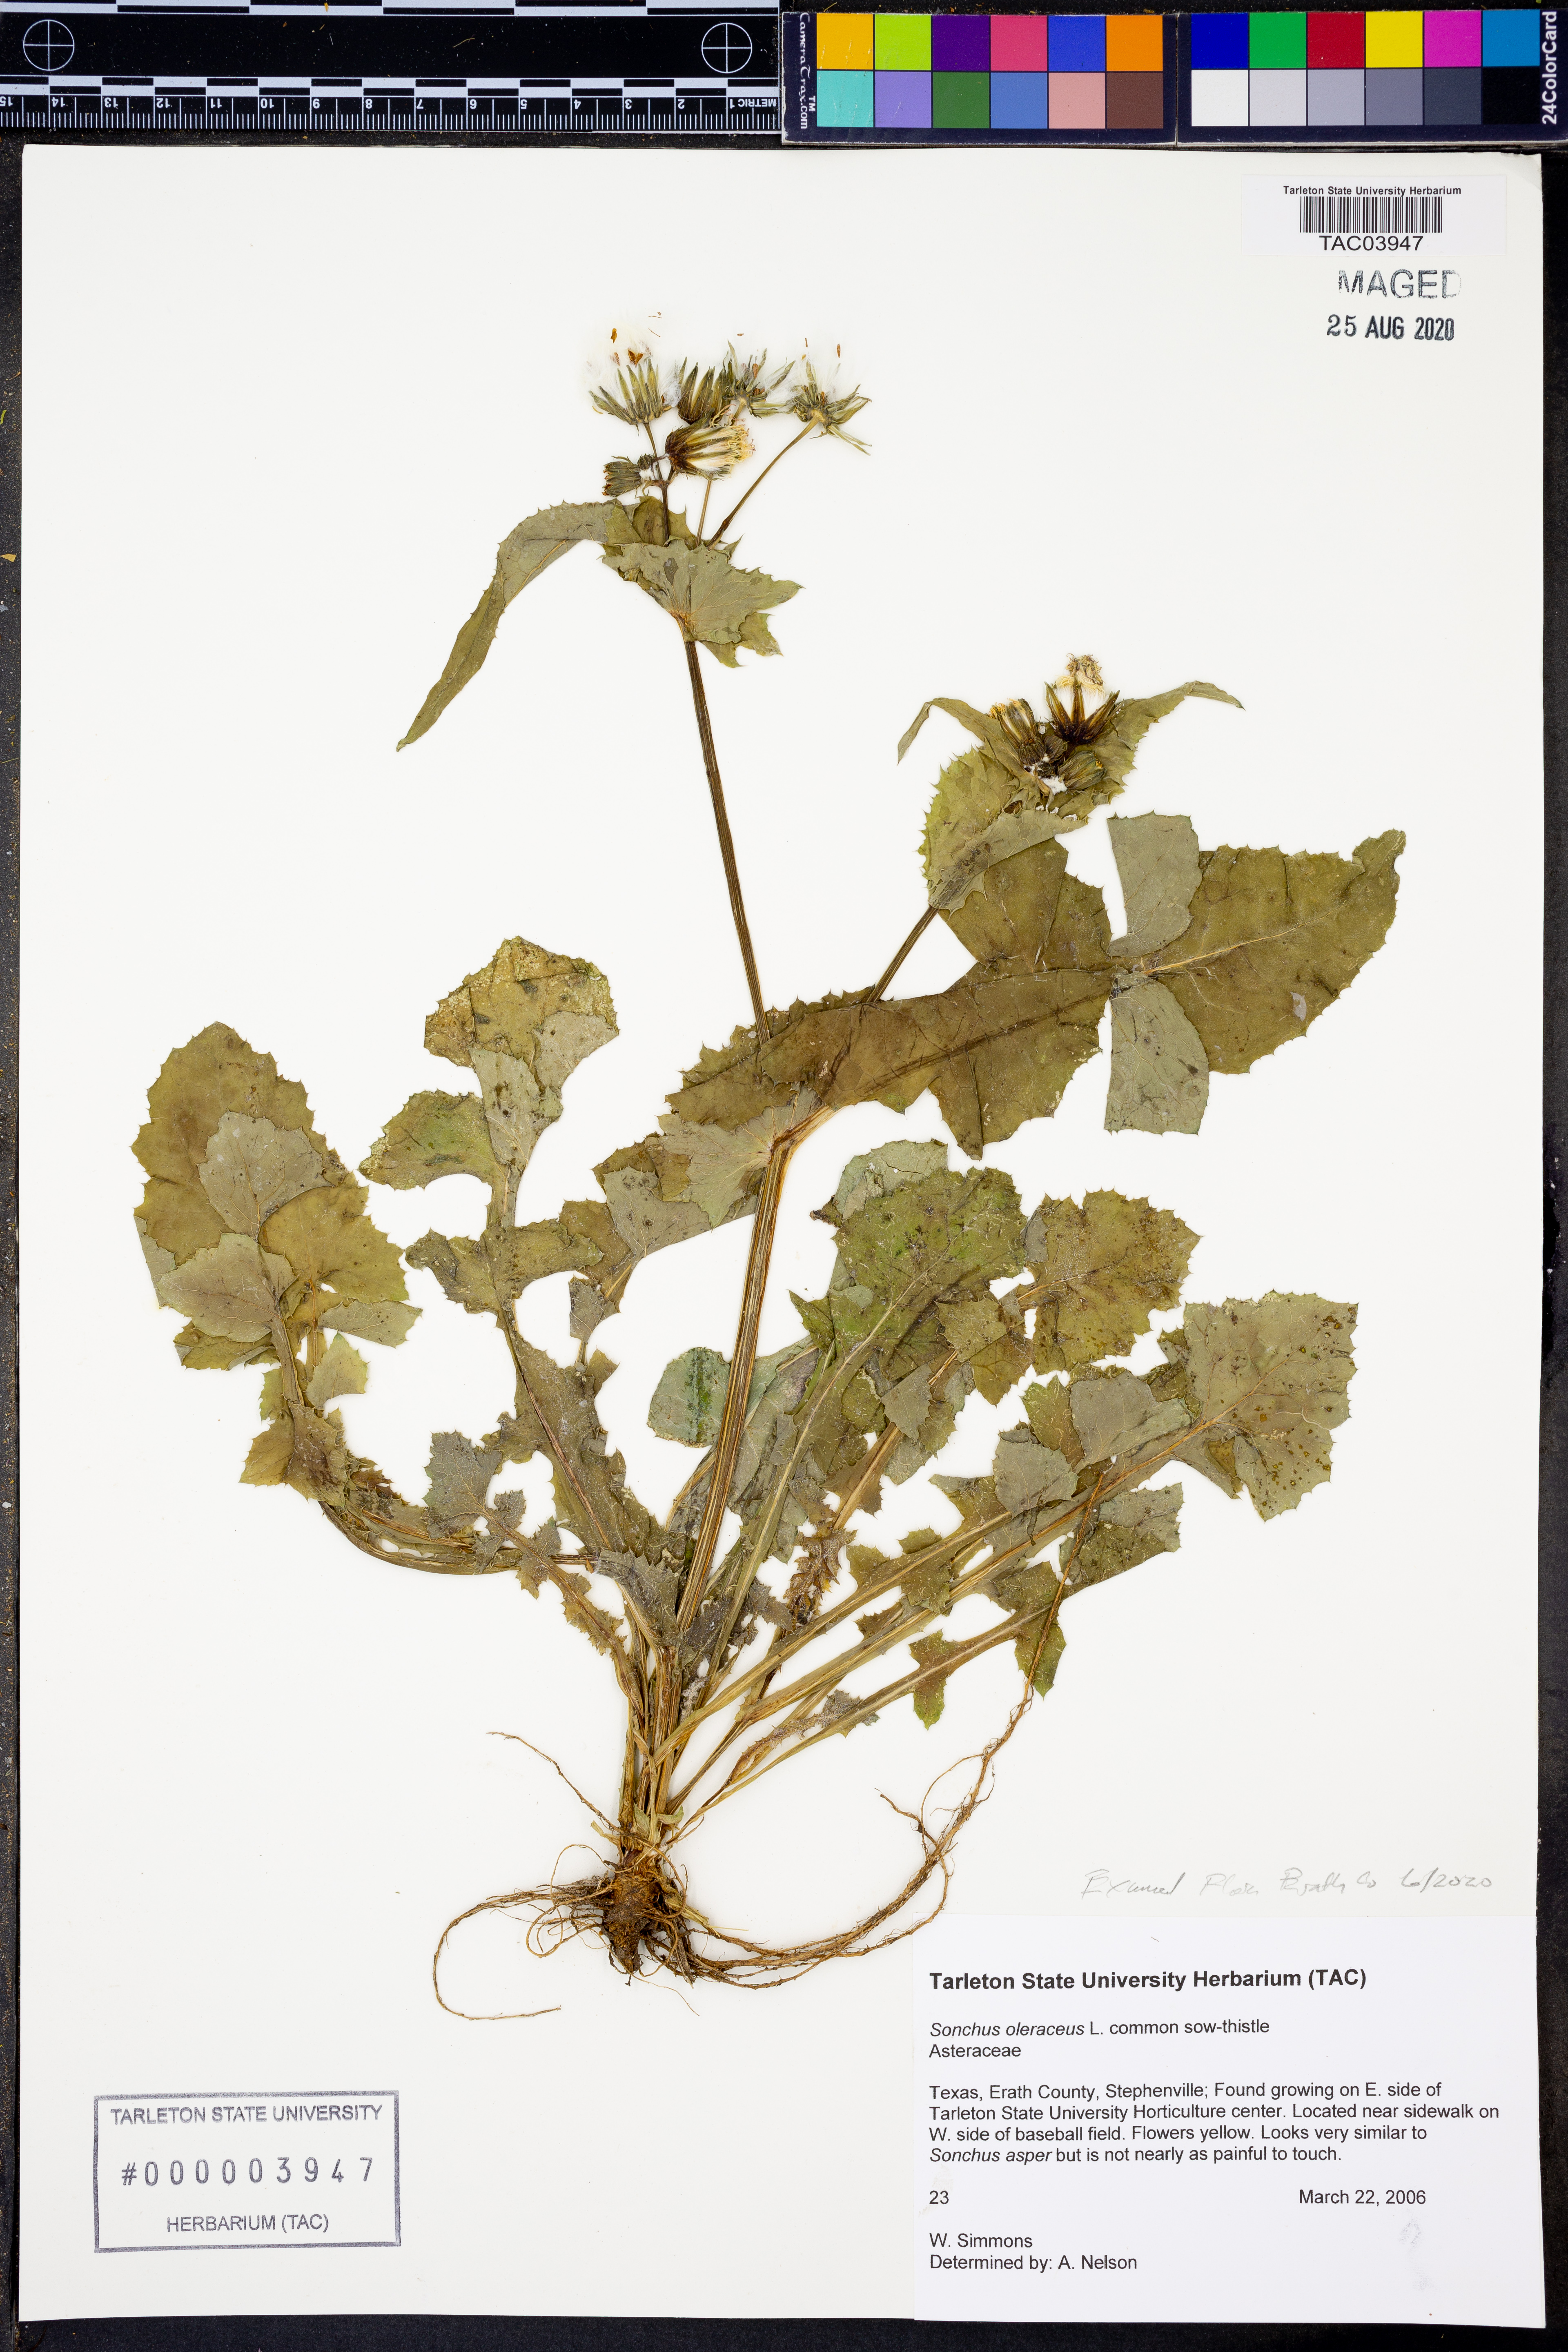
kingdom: Plantae
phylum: Tracheophyta
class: Magnoliopsida
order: Asterales
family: Asteraceae
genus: Sonchus
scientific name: Sonchus oleraceus
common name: Common sowthistle
